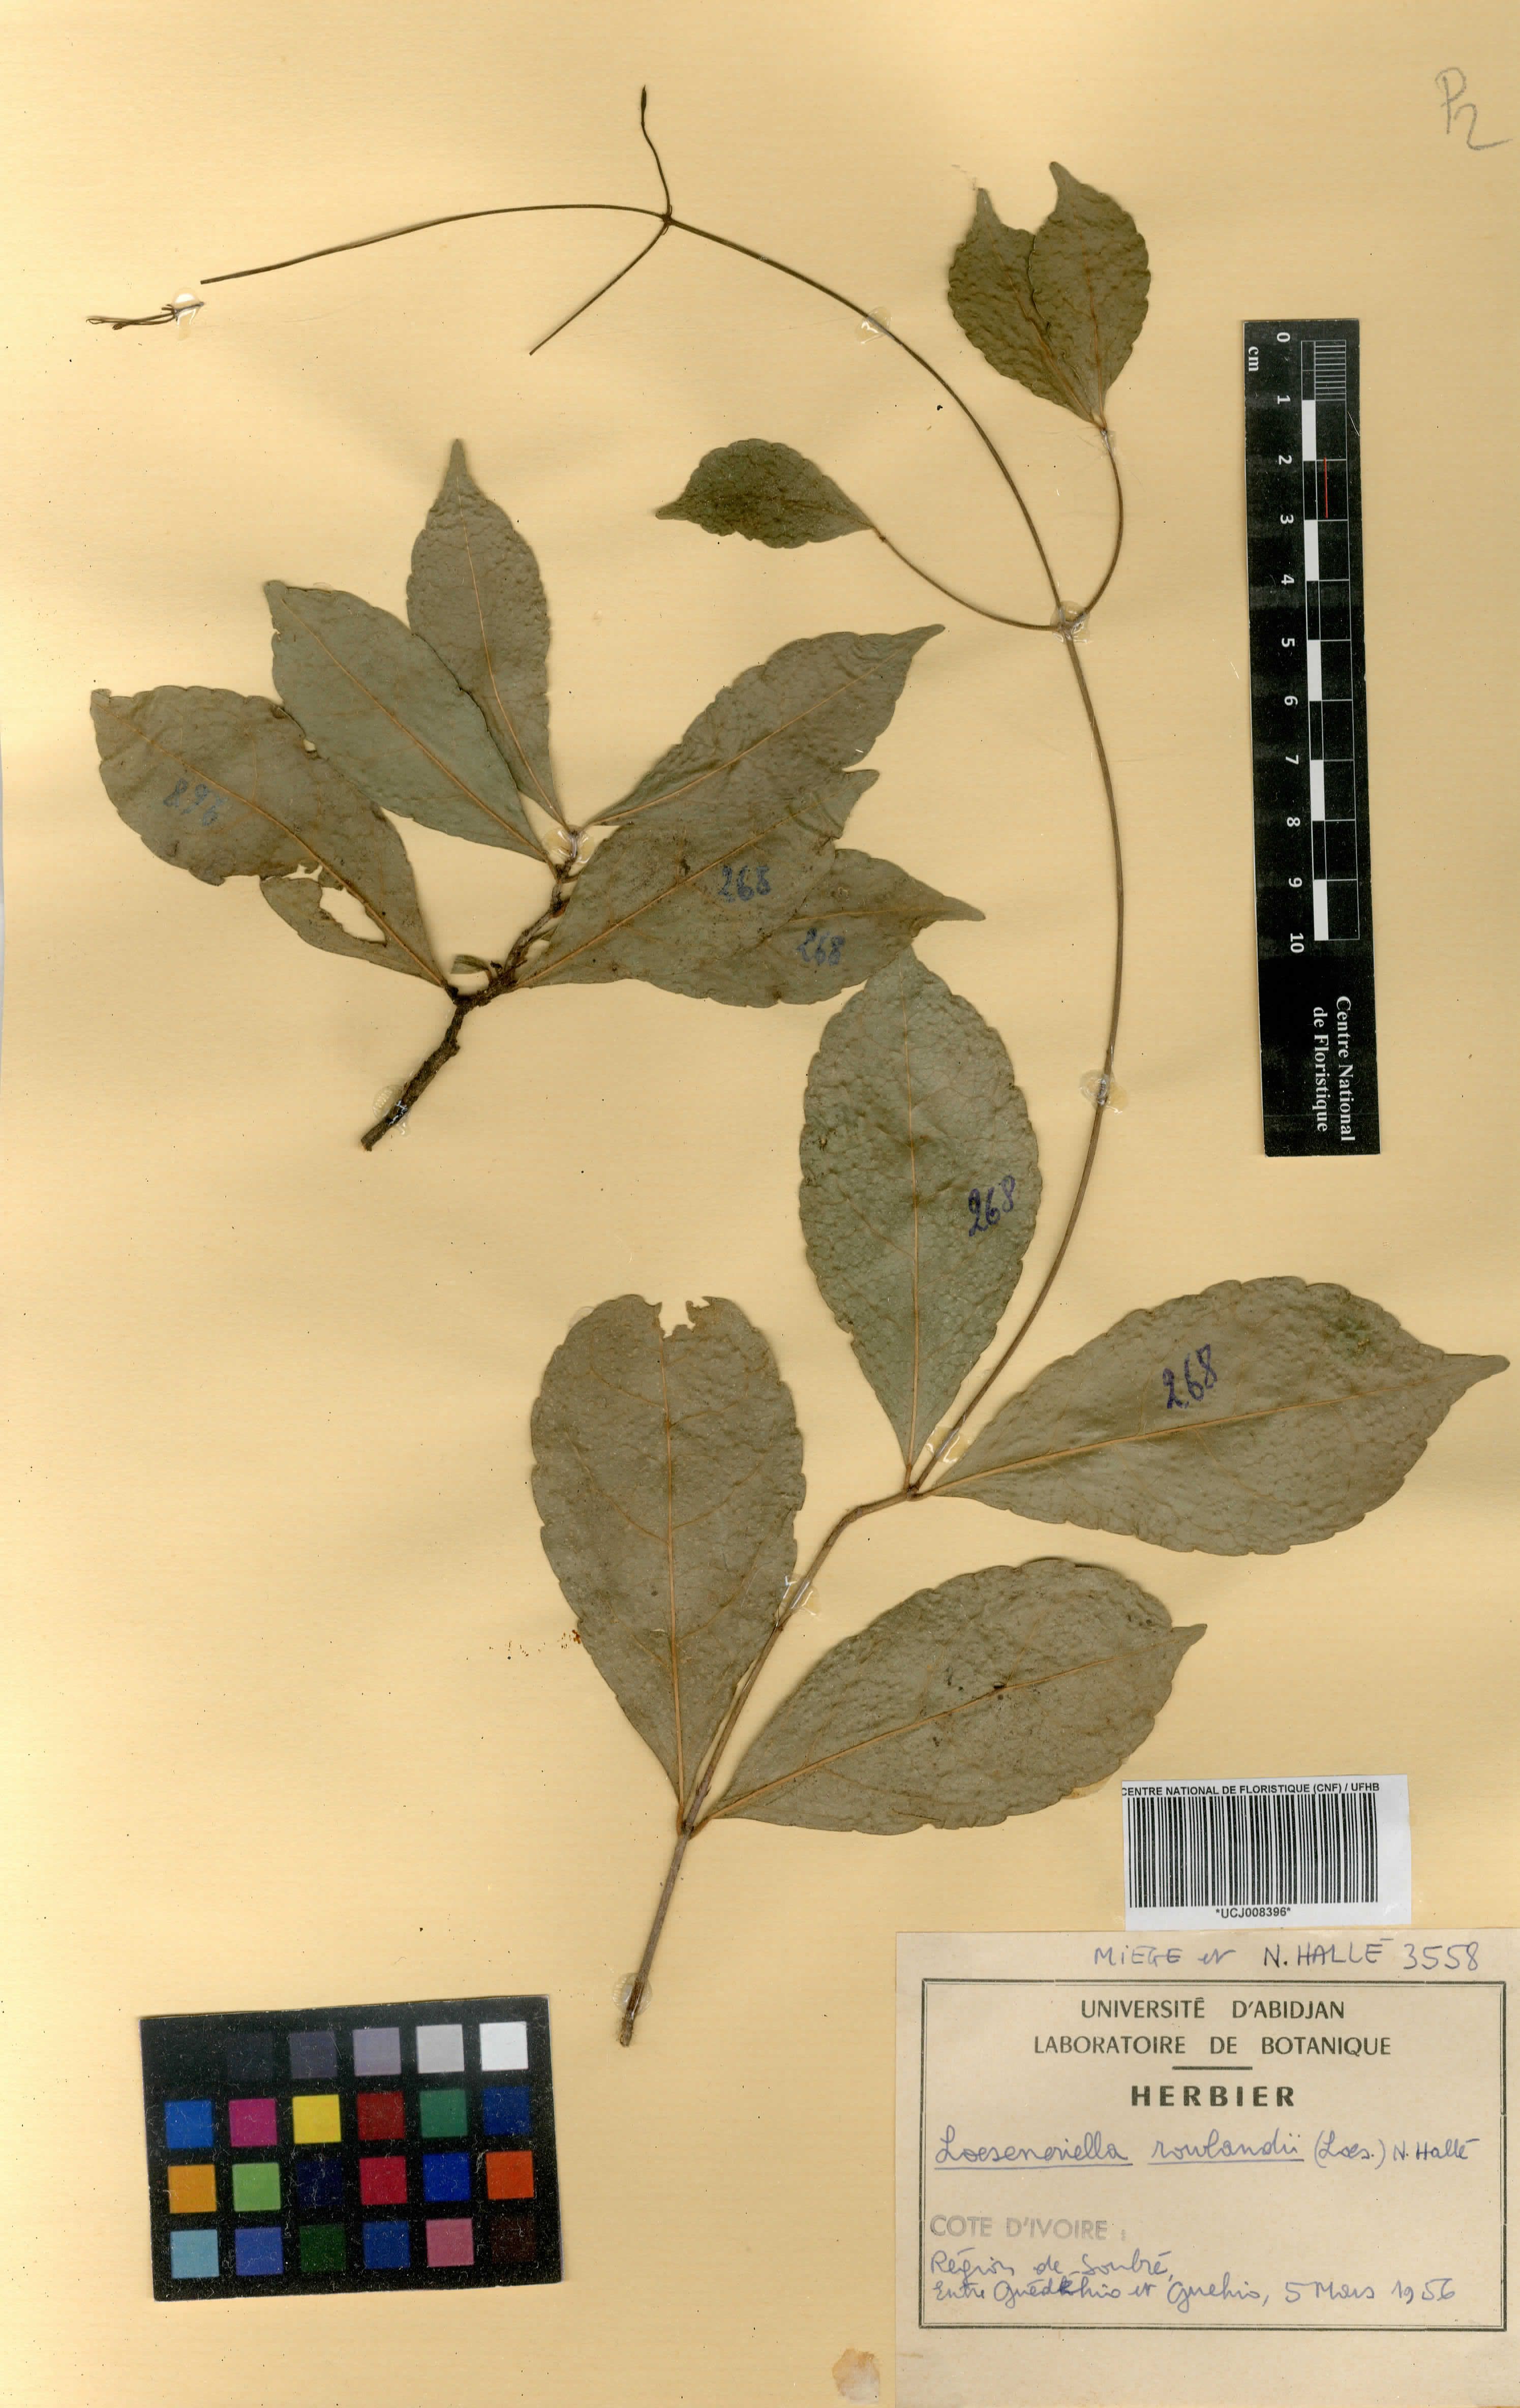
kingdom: Plantae
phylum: Tracheophyta
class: Magnoliopsida
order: Celastrales
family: Celastraceae
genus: Loeseneriella
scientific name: Loeseneriella rowlandii
